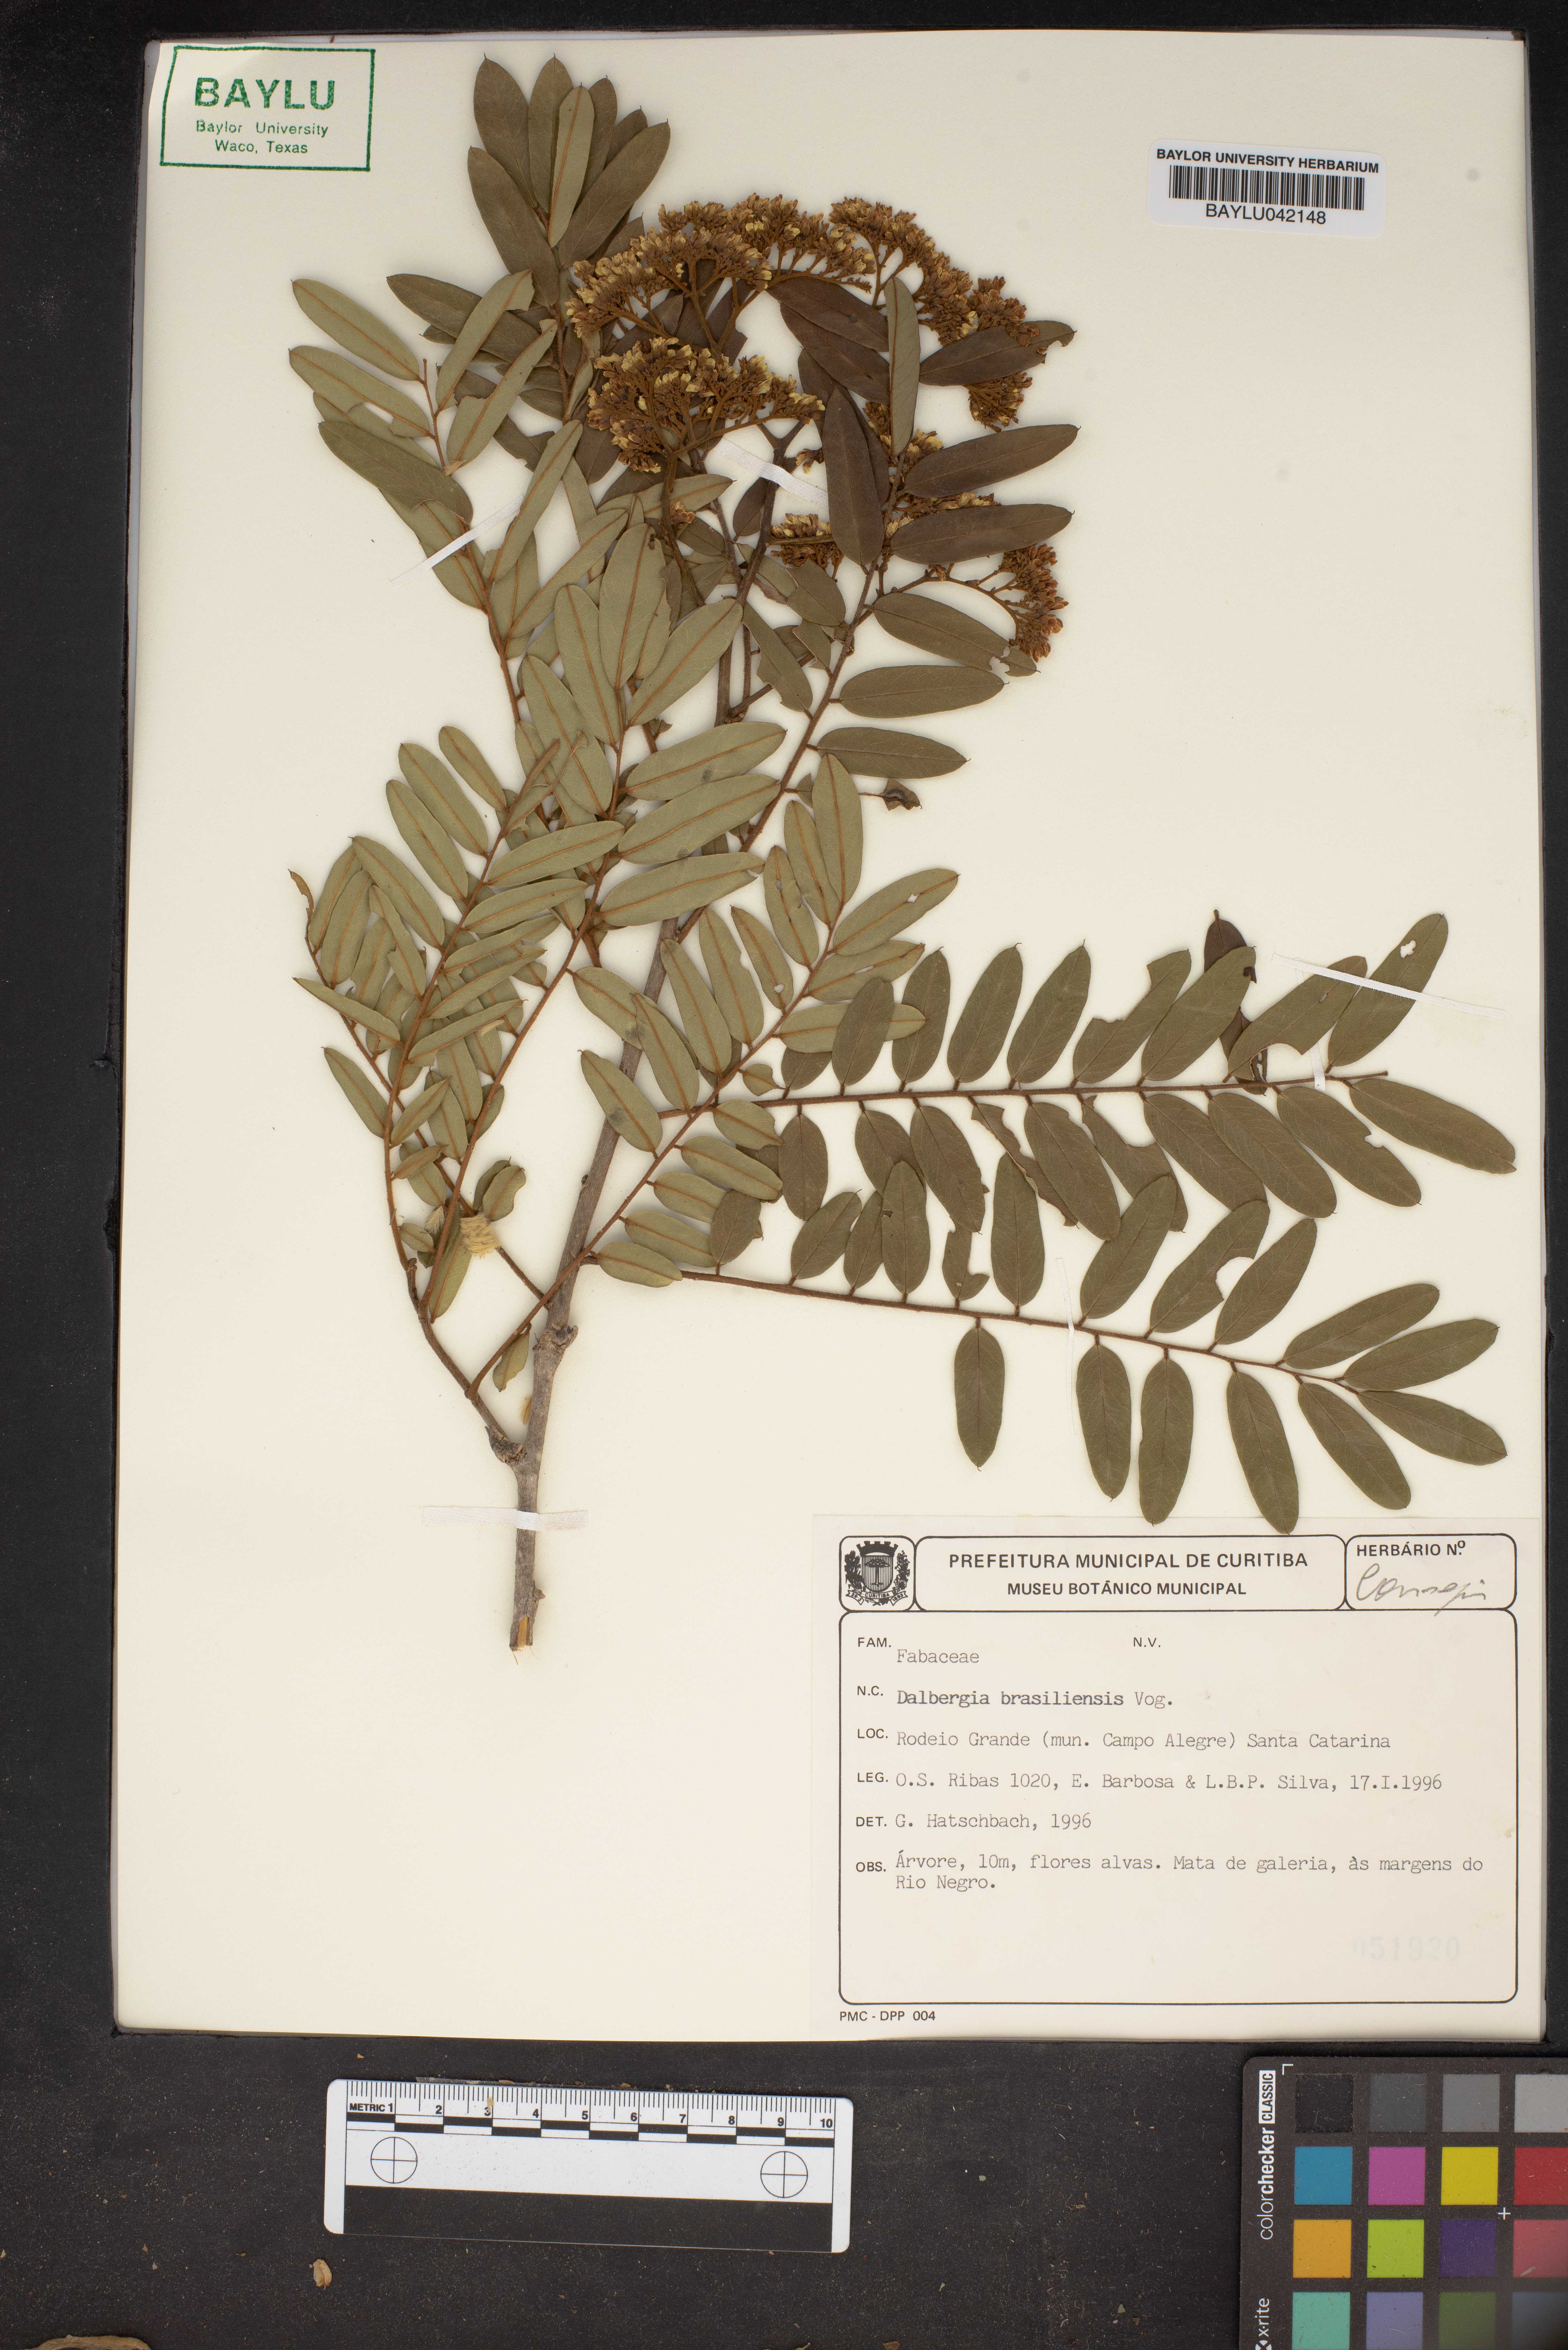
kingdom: Plantae
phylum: Tracheophyta
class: Magnoliopsida
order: Fabales
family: Fabaceae
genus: Dalbergia
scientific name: Dalbergia brasiliensis
